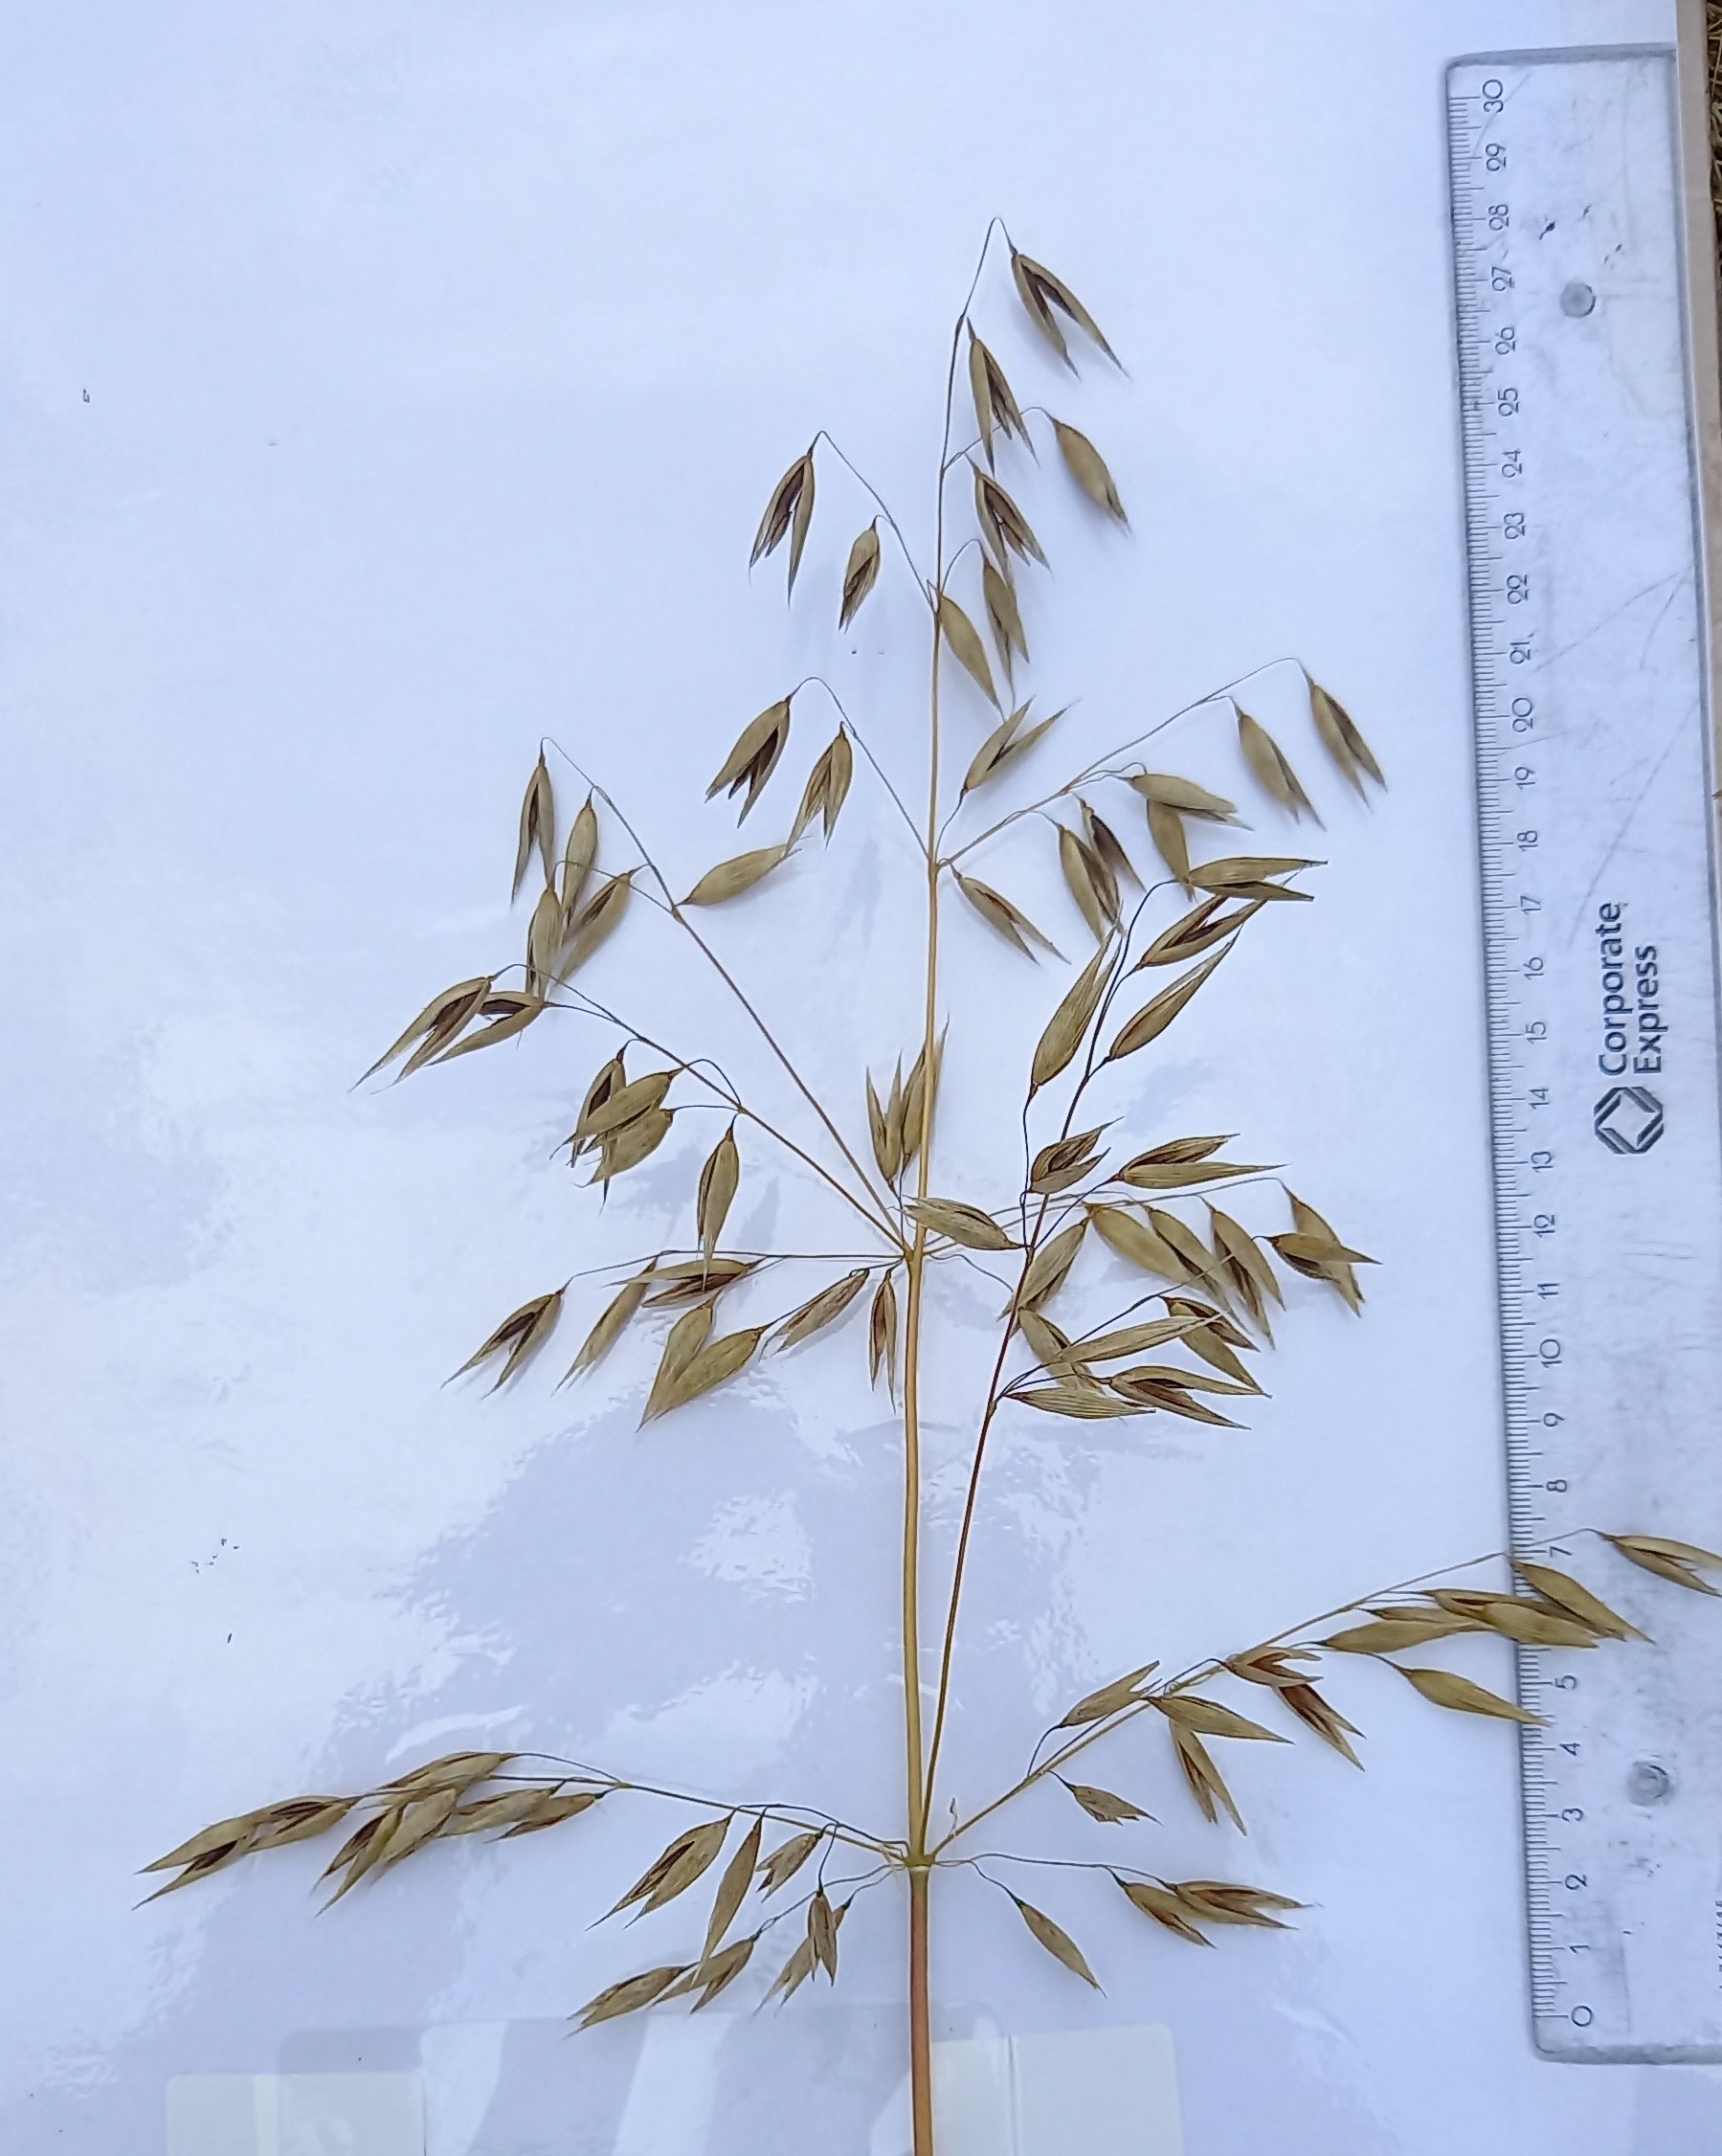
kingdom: Plantae
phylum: Tracheophyta
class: Liliopsida
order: Poales
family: Poaceae
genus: Avena
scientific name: Avena sativa
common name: Oat
